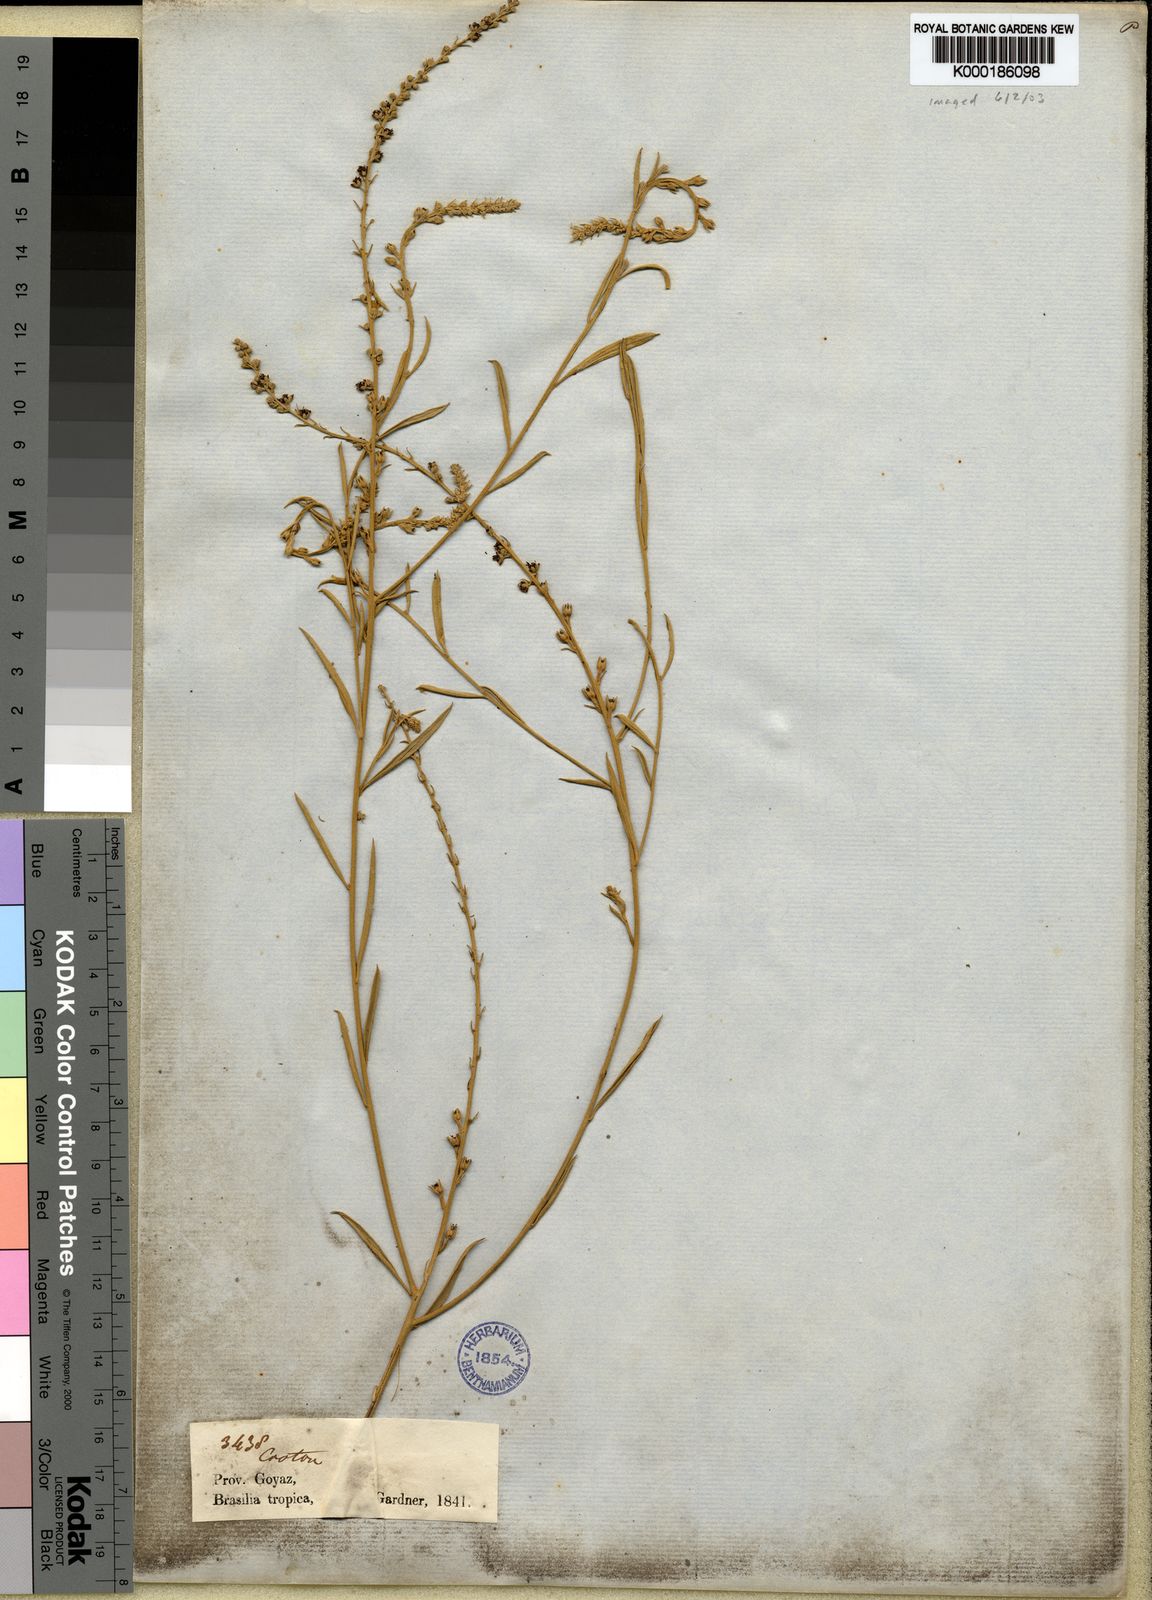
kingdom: Plantae
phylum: Tracheophyta
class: Magnoliopsida
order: Malpighiales
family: Euphorbiaceae
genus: Croton
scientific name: Croton
